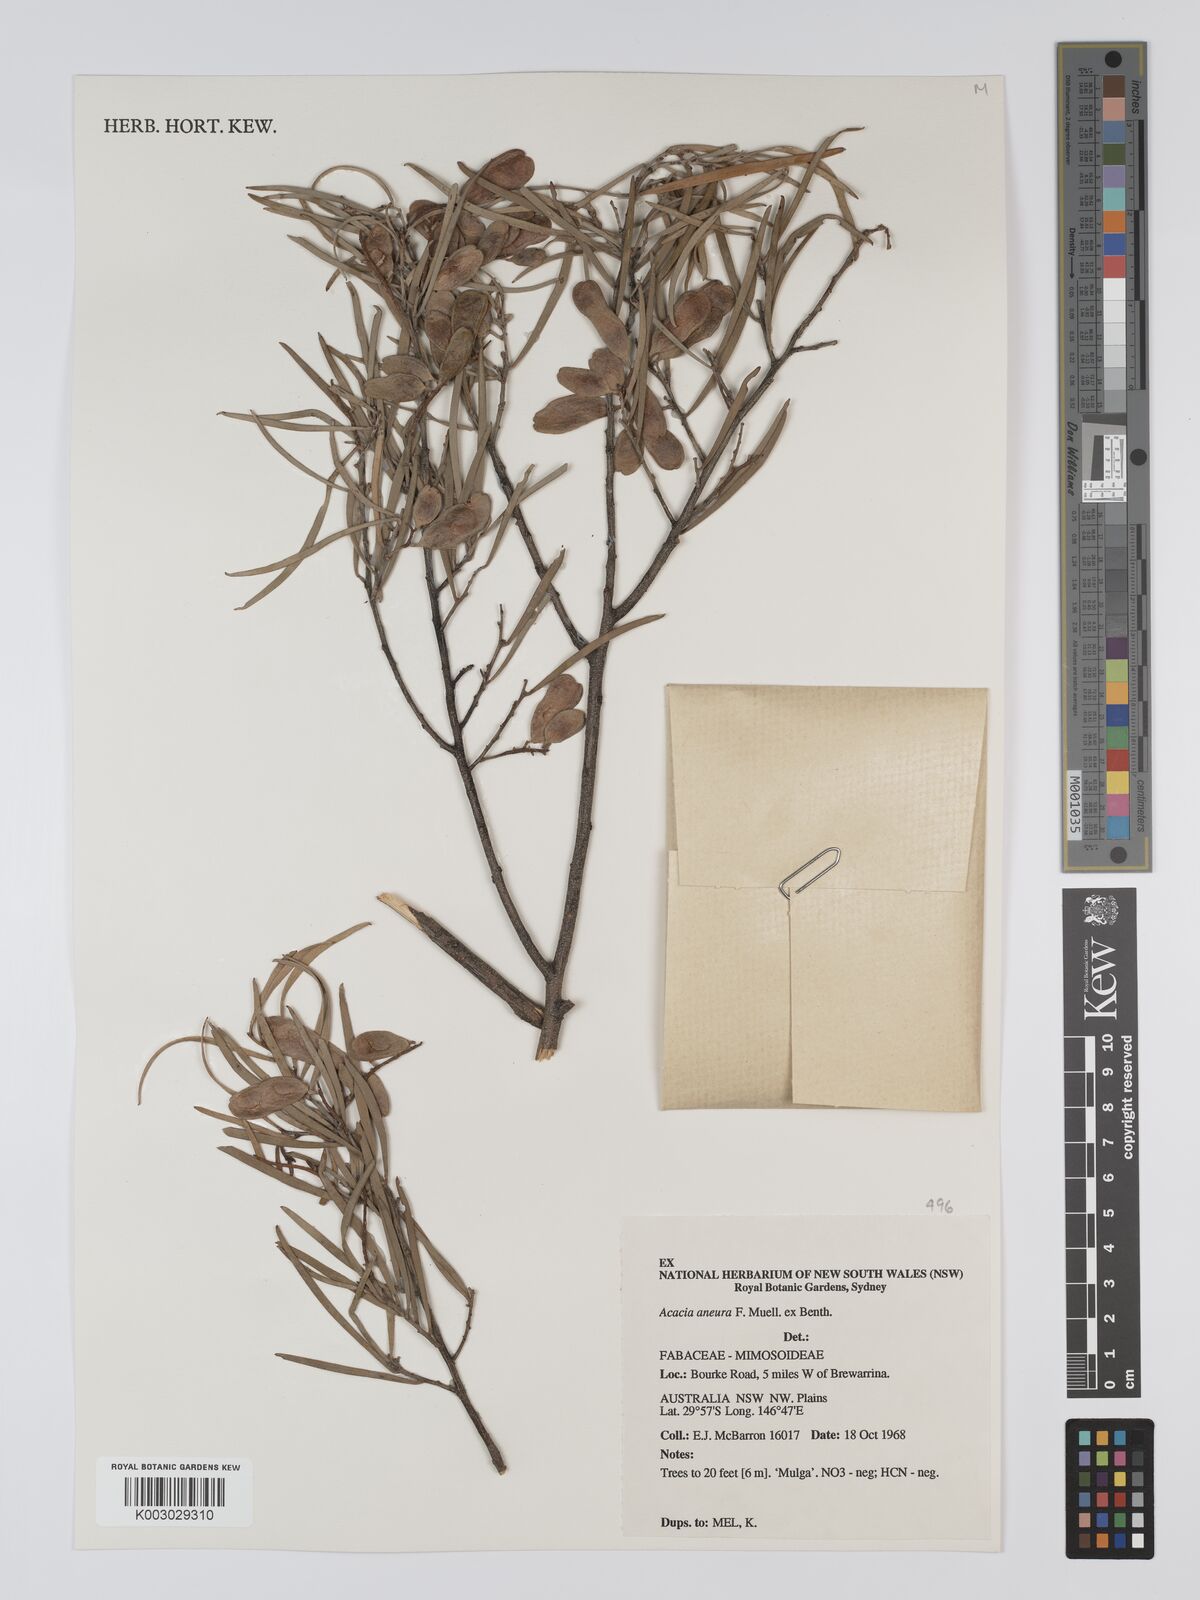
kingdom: Plantae
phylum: Tracheophyta
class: Magnoliopsida
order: Fabales
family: Fabaceae
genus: Acacia
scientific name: Acacia aneura
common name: Mulga
